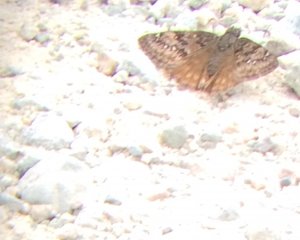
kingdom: Animalia
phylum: Arthropoda
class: Insecta
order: Lepidoptera
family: Hesperiidae
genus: Erynnis
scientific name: Erynnis icelus
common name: Dreamy Duskywing
